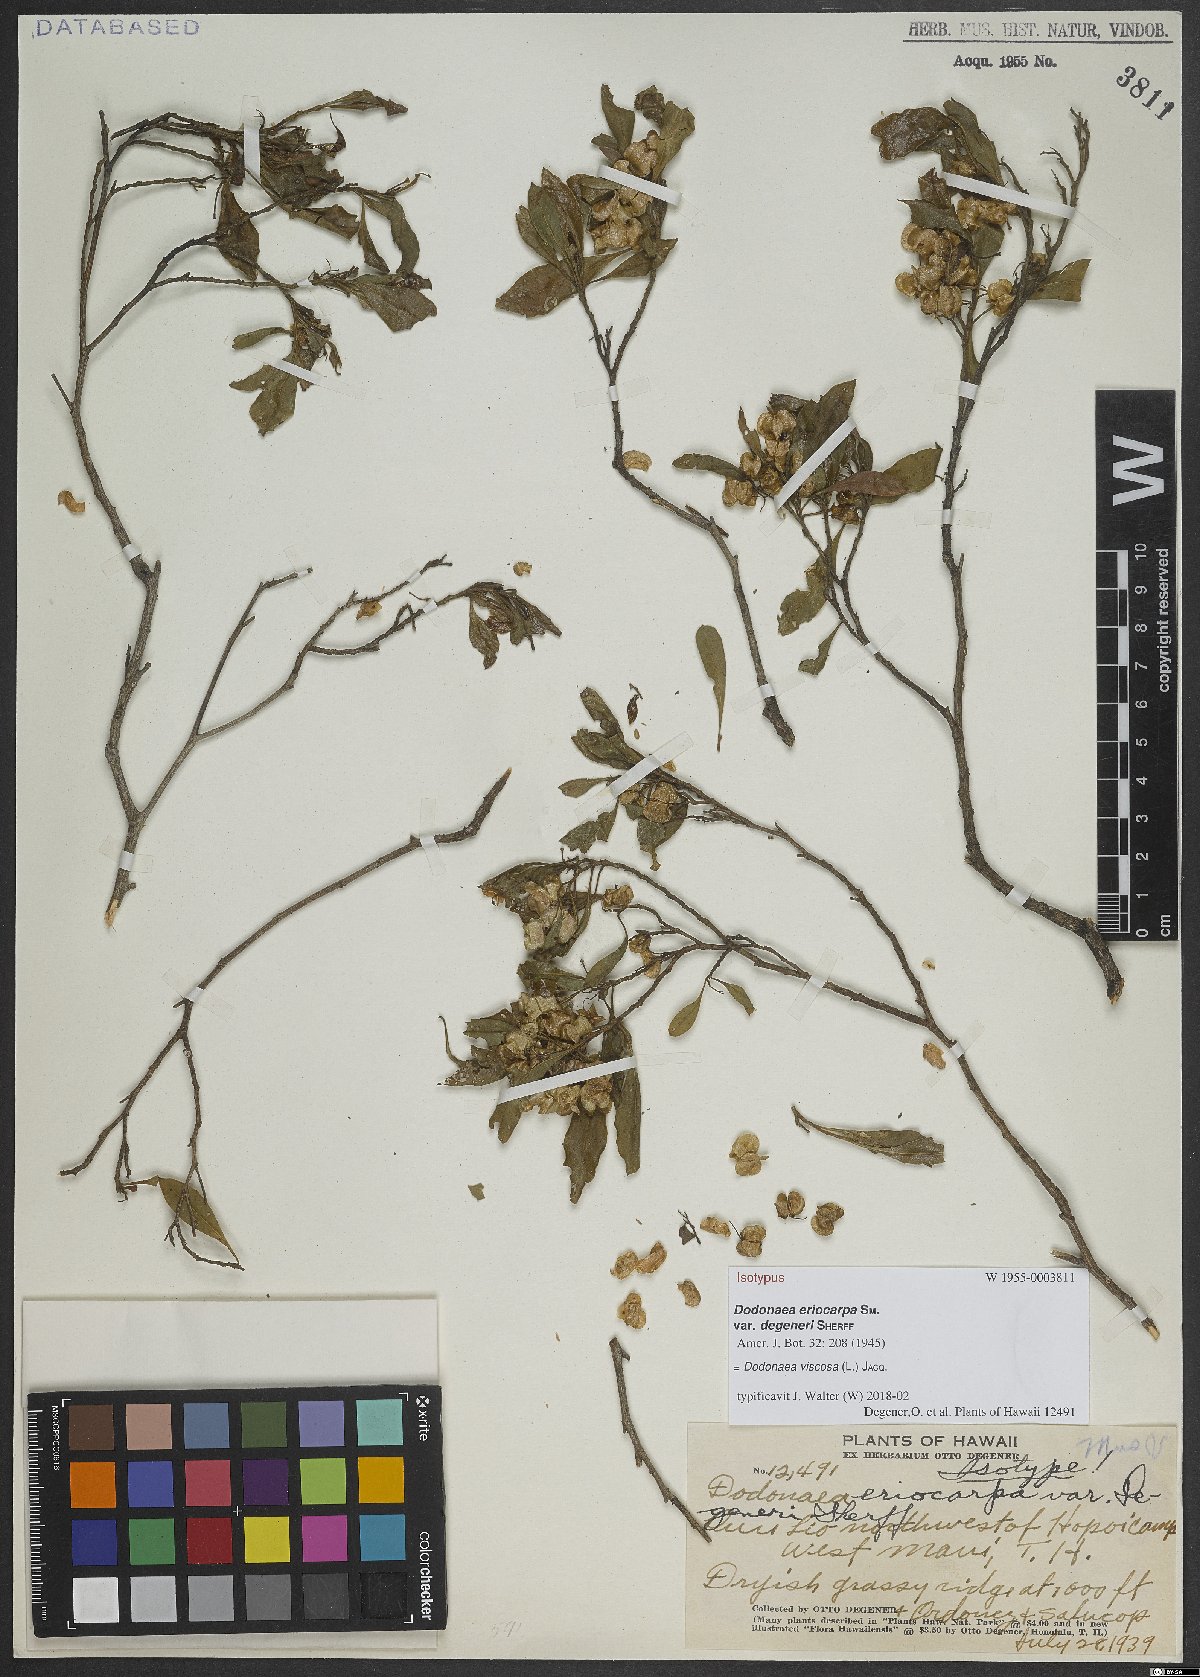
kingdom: Plantae
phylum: Tracheophyta
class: Magnoliopsida
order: Sapindales
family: Sapindaceae
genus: Dodonaea
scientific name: Dodonaea viscosa
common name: Hopbush
